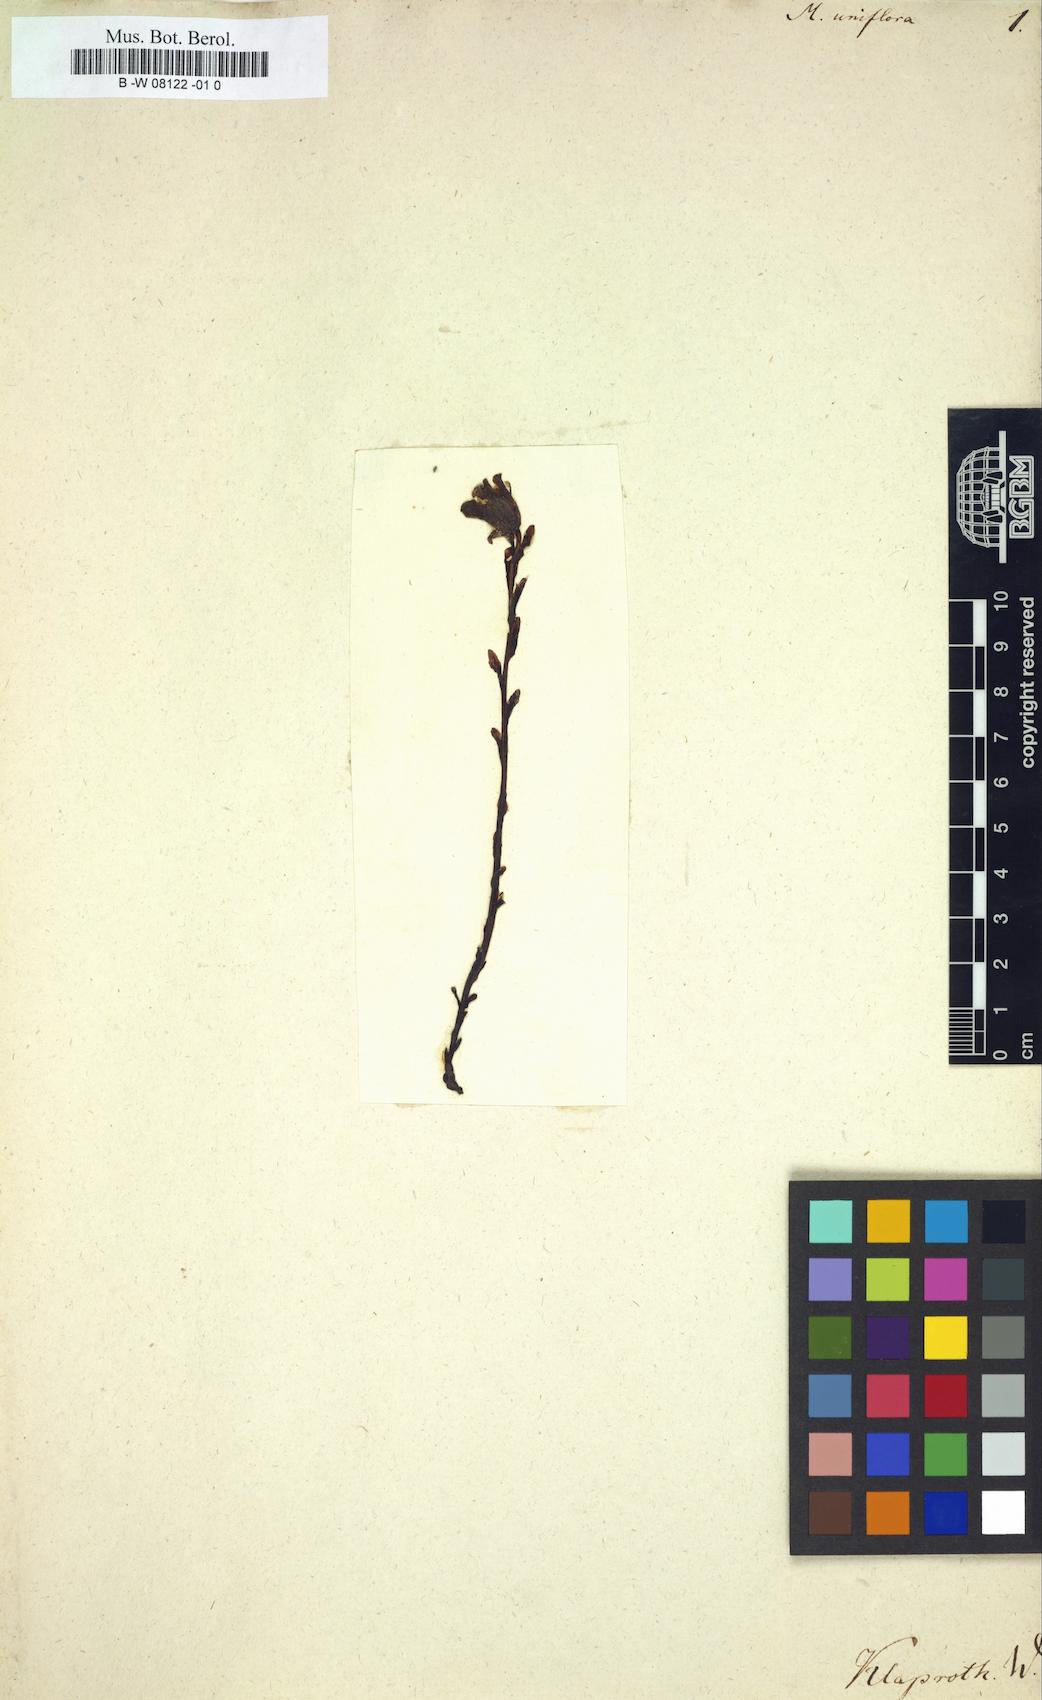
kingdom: Plantae
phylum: Tracheophyta
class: Magnoliopsida
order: Ericales
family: Ericaceae
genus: Monotropa
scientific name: Monotropa uniflora
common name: Convulsion root
